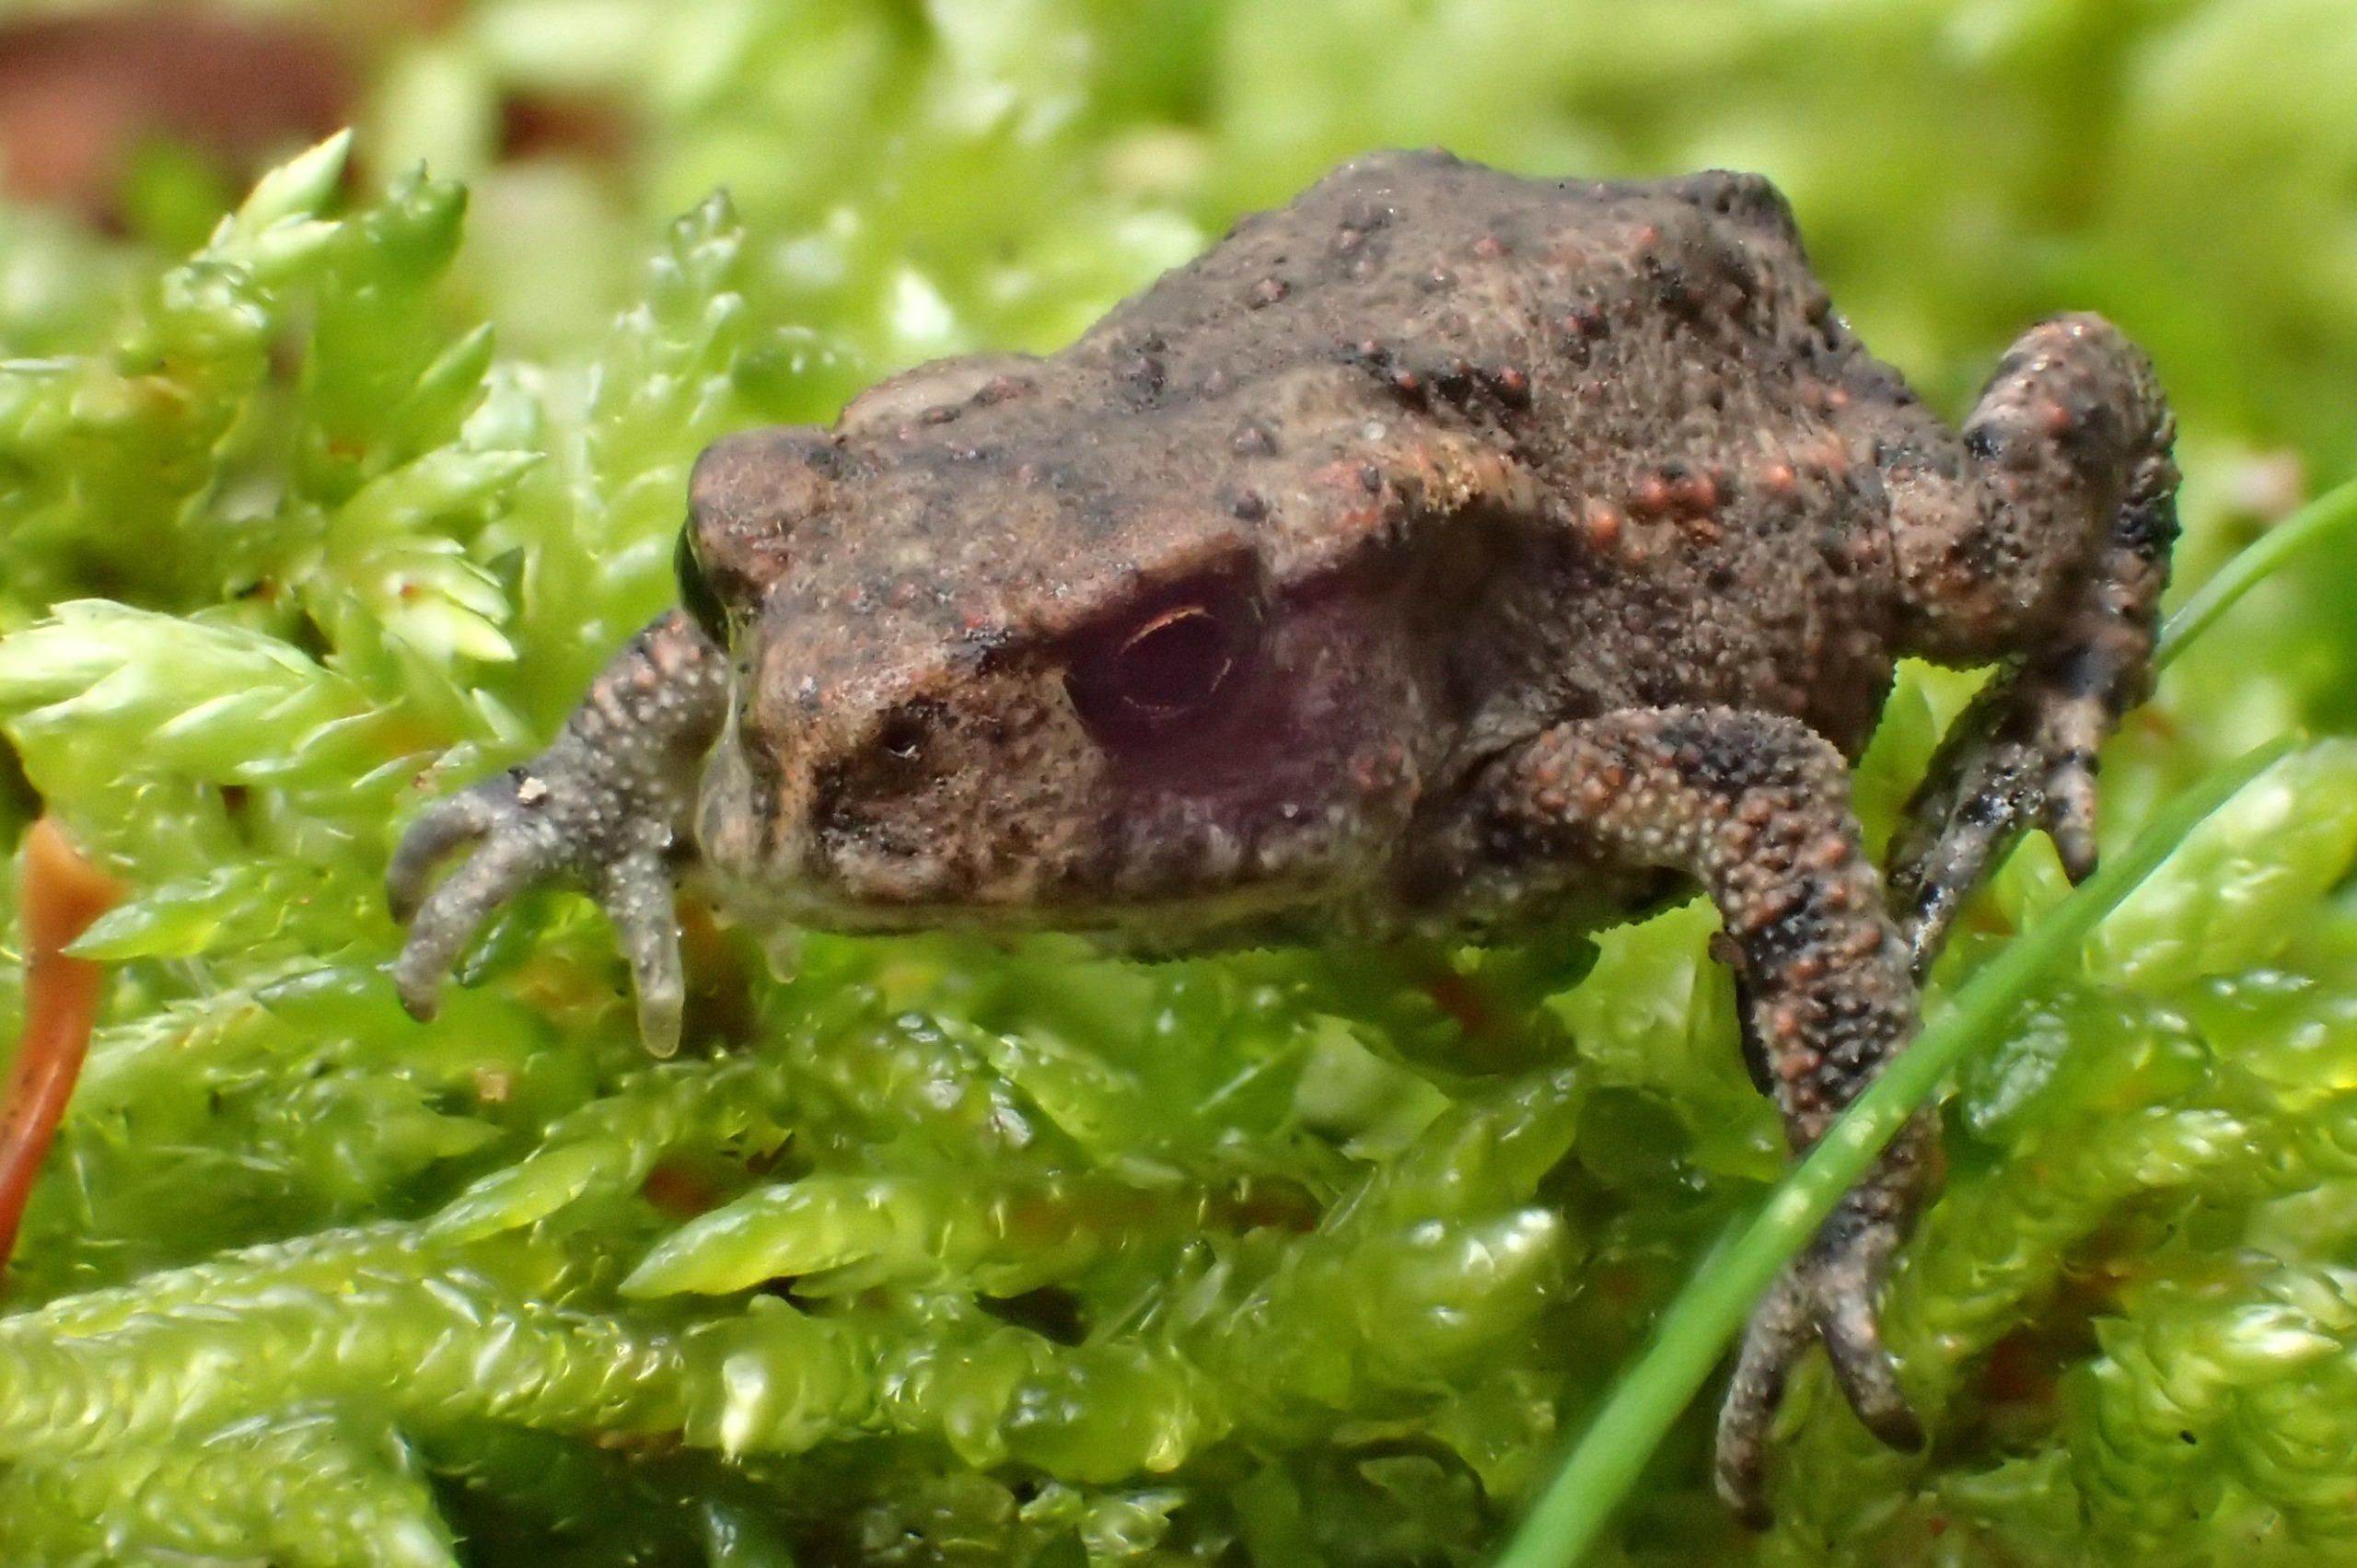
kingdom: Animalia
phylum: Chordata
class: Amphibia
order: Anura
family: Bufonidae
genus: Bufo
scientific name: Bufo bufo
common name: Skrubtudse
